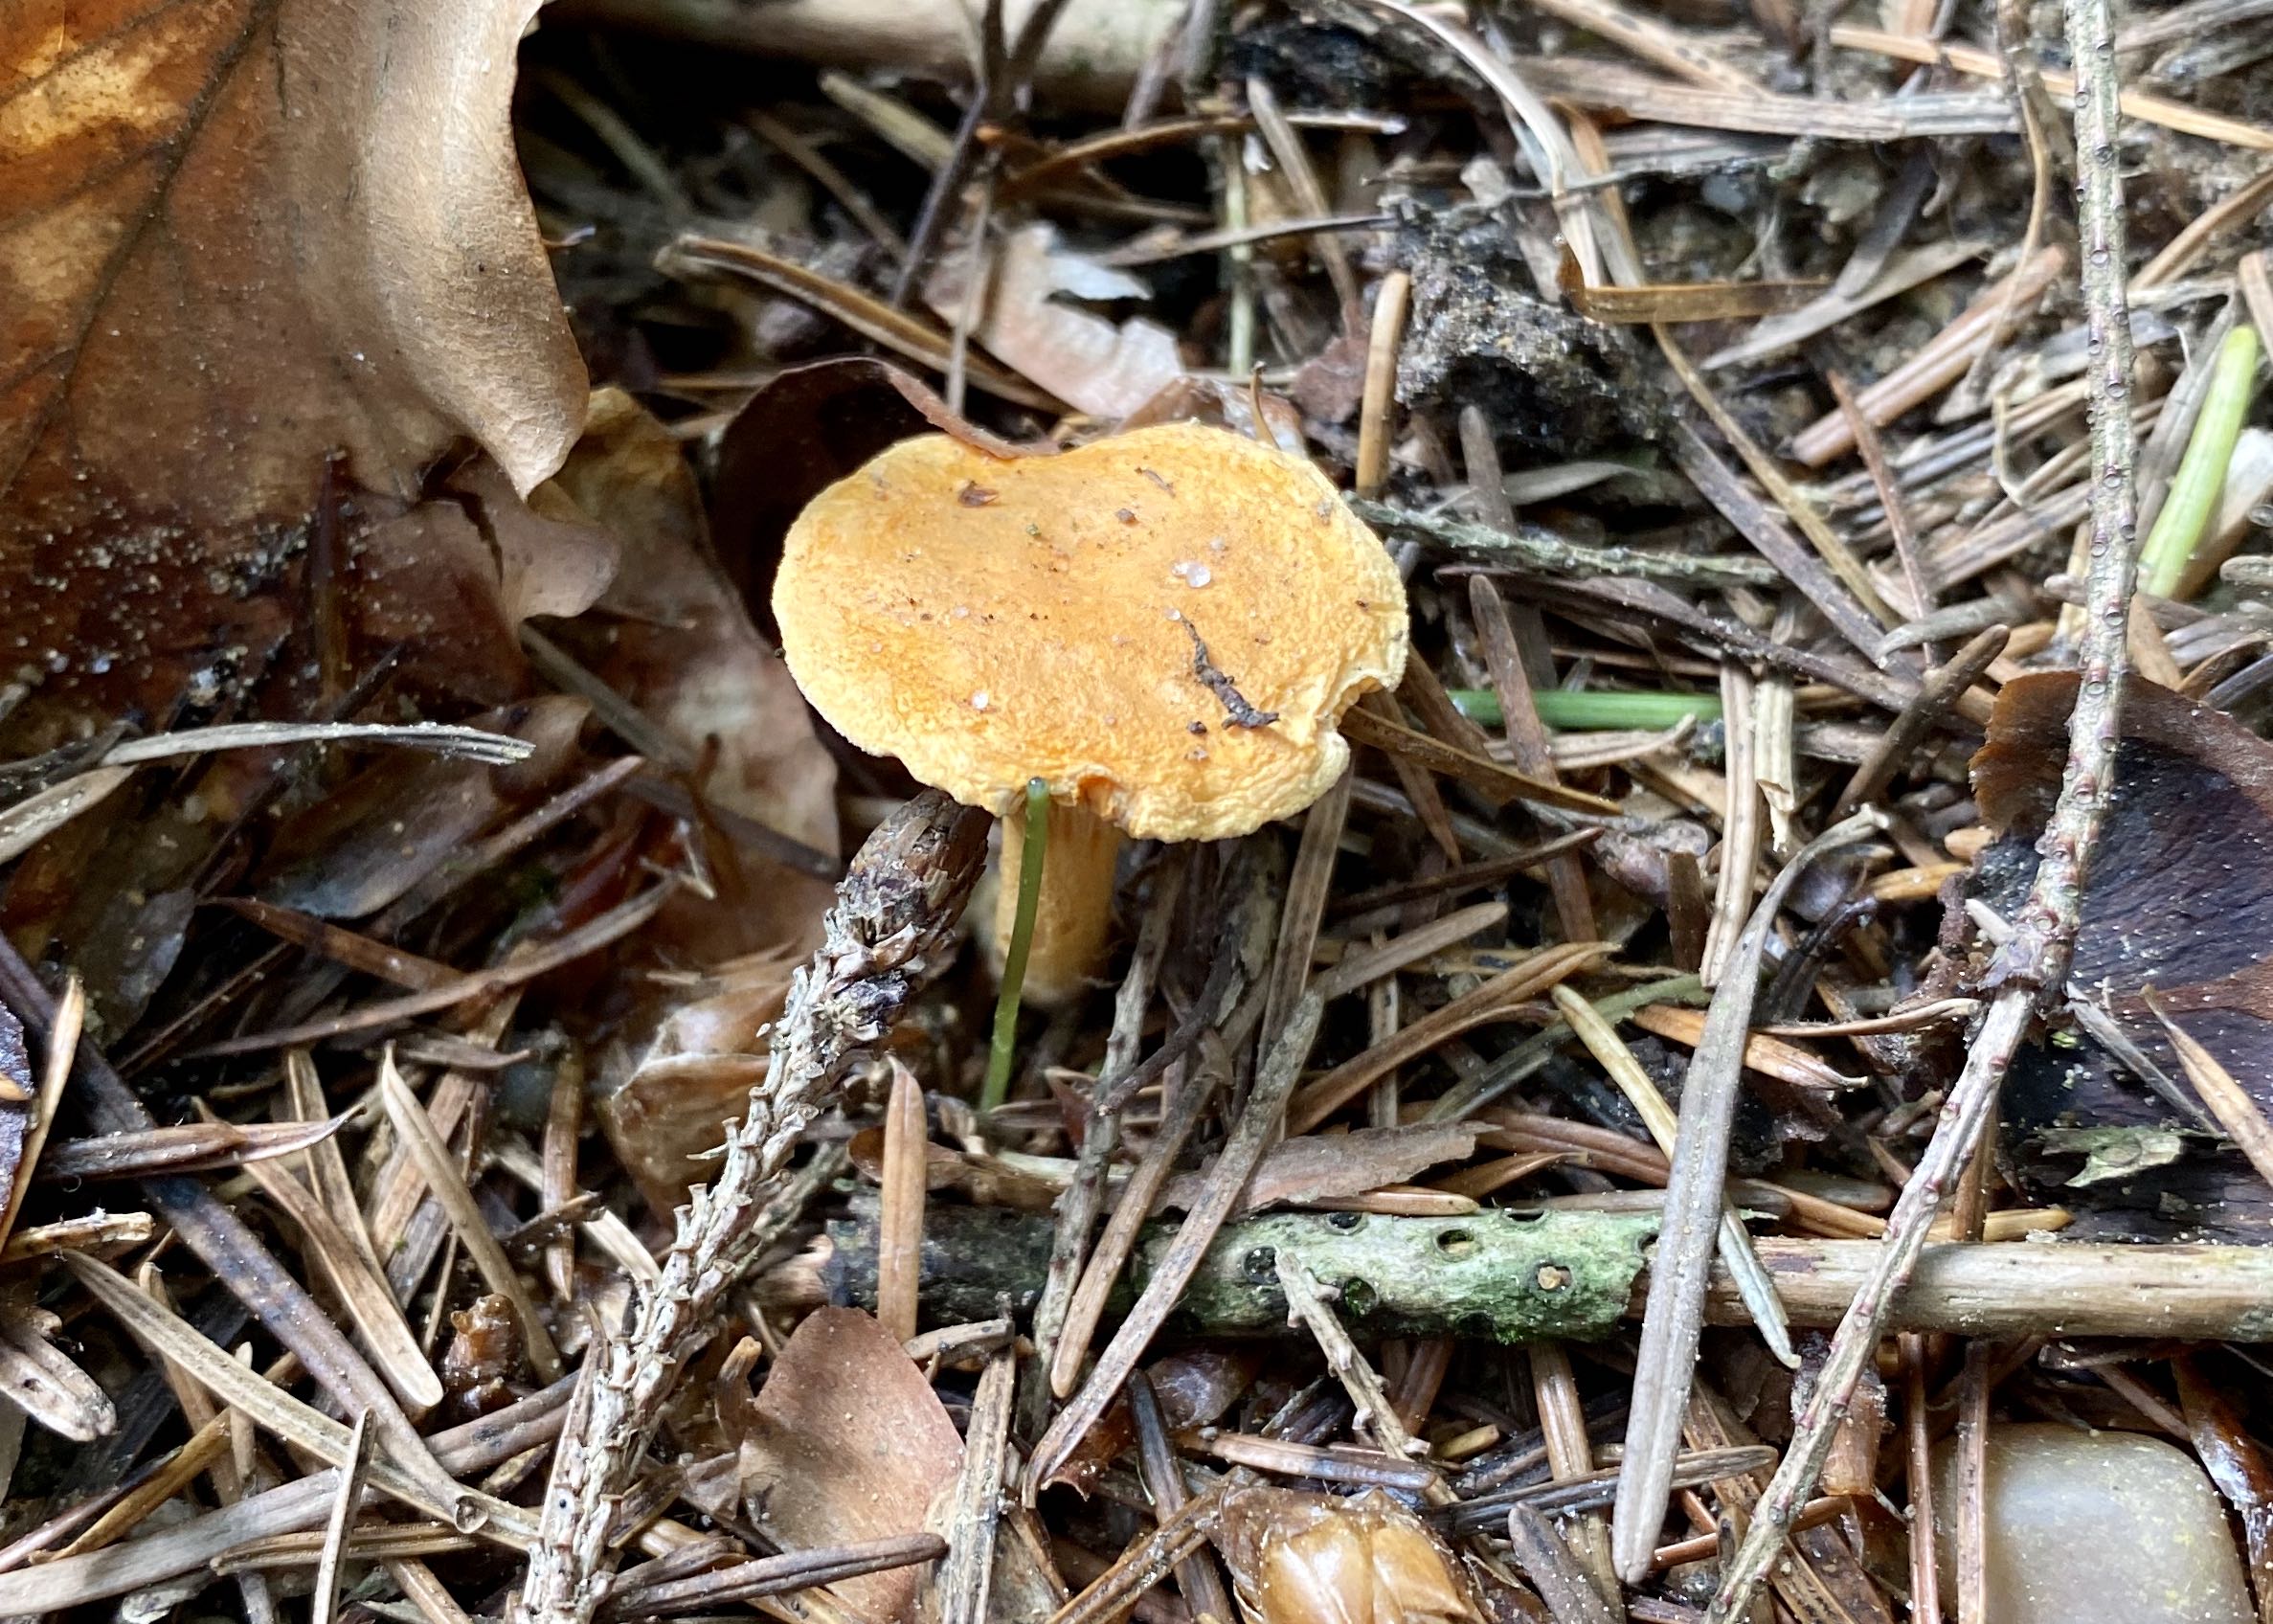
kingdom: Fungi
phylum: Basidiomycota
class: Agaricomycetes
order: Boletales
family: Hygrophoropsidaceae
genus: Hygrophoropsis
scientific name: Hygrophoropsis aurantiaca
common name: almindelig orangekantarel
